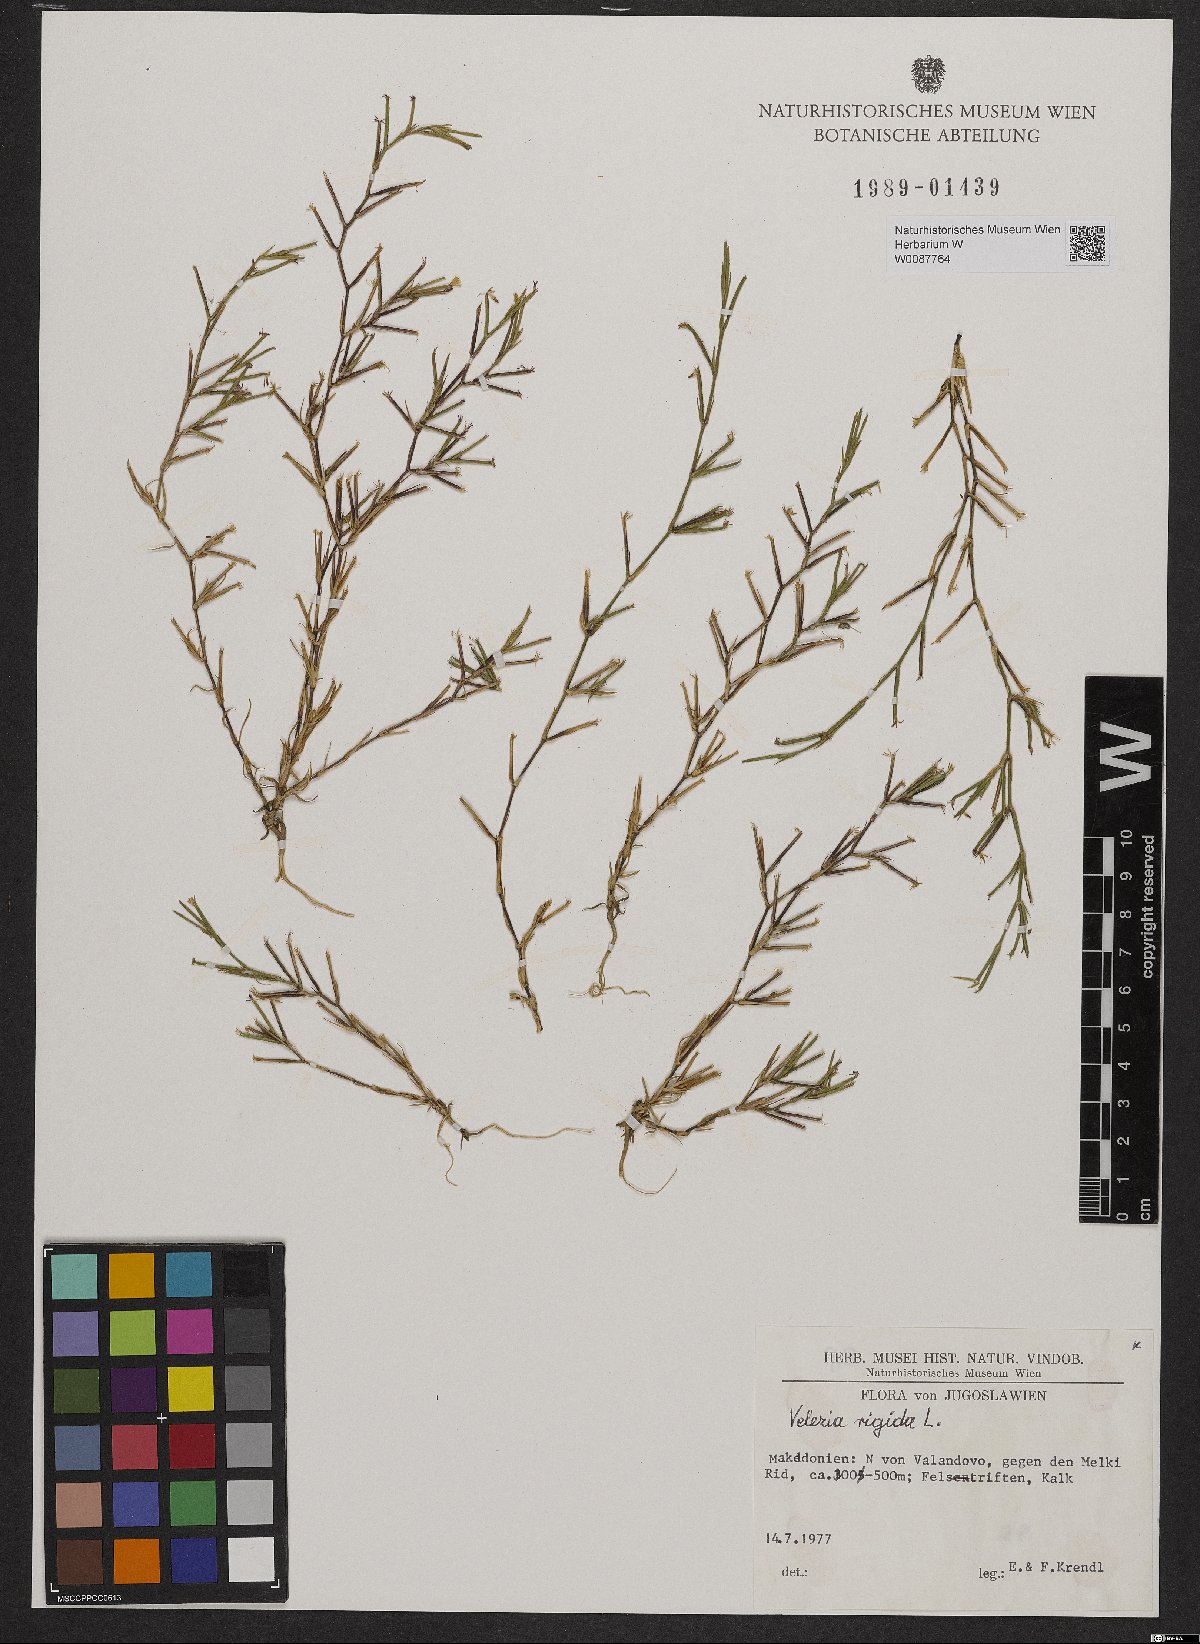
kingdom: Plantae
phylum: Tracheophyta
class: Magnoliopsida
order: Caryophyllales
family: Caryophyllaceae
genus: Dianthus
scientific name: Dianthus nudiflorus
